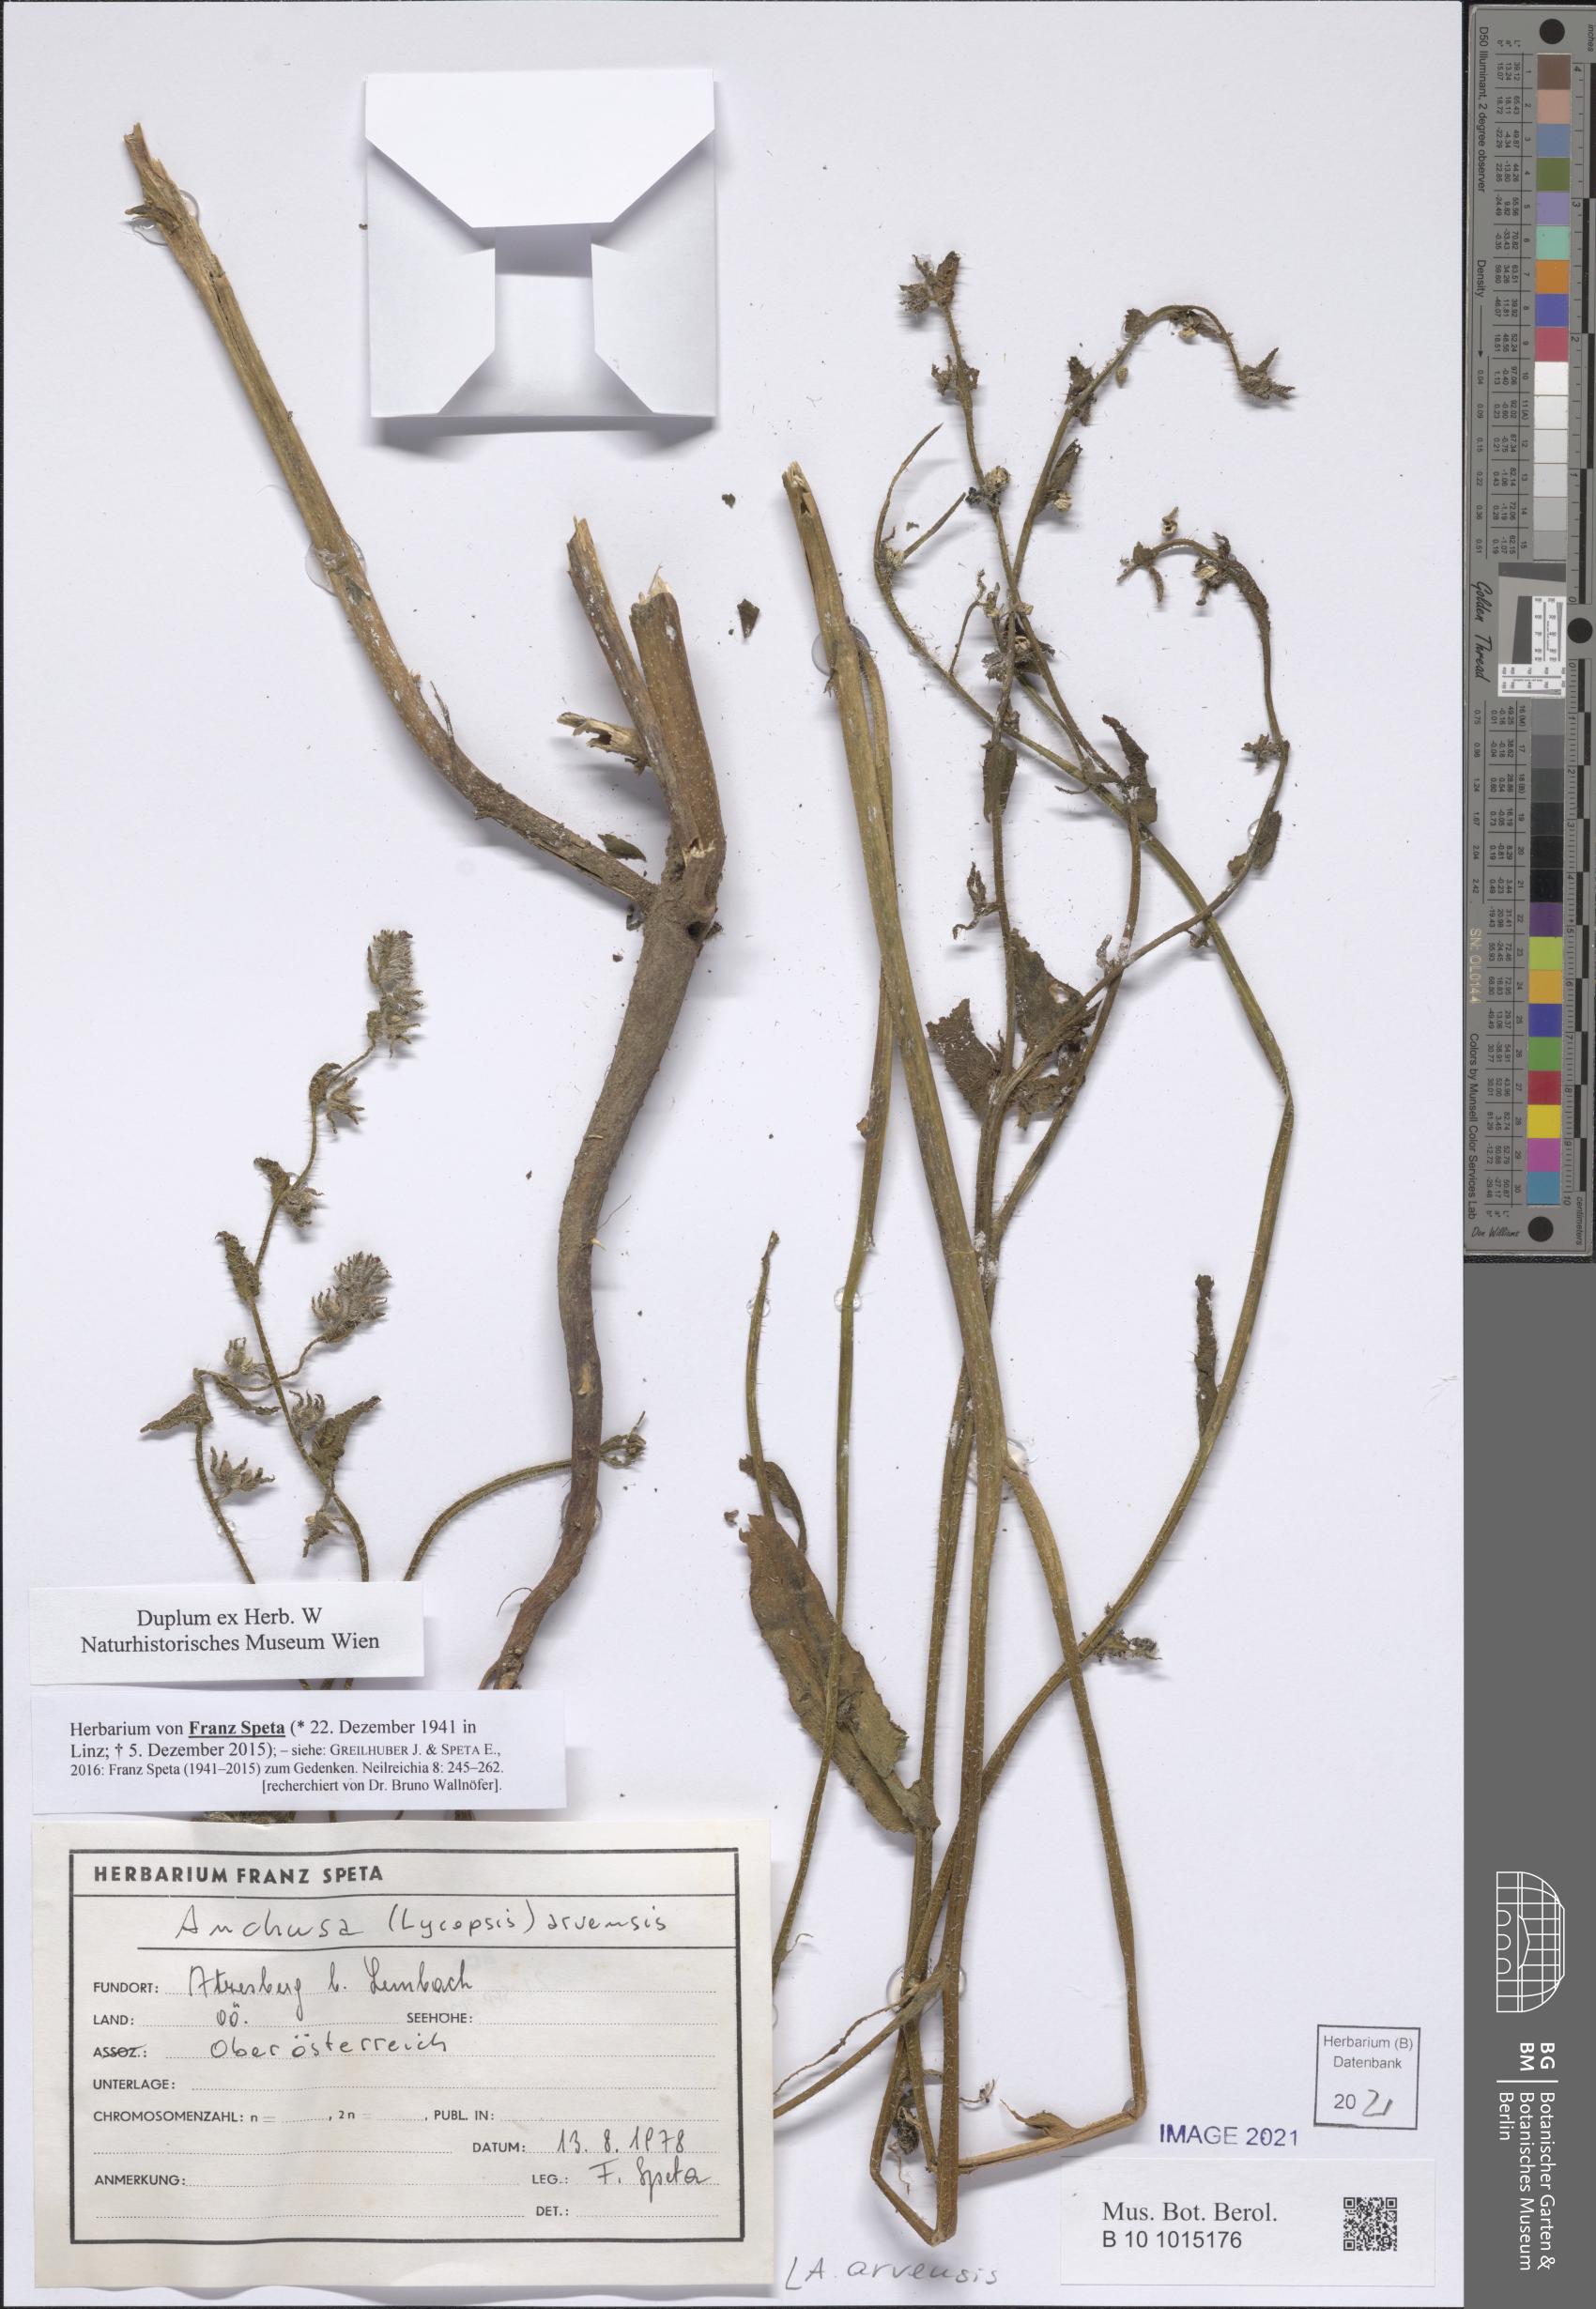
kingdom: Plantae
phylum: Tracheophyta
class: Magnoliopsida
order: Boraginales
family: Boraginaceae
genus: Lycopsis
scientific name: Lycopsis arvensis
